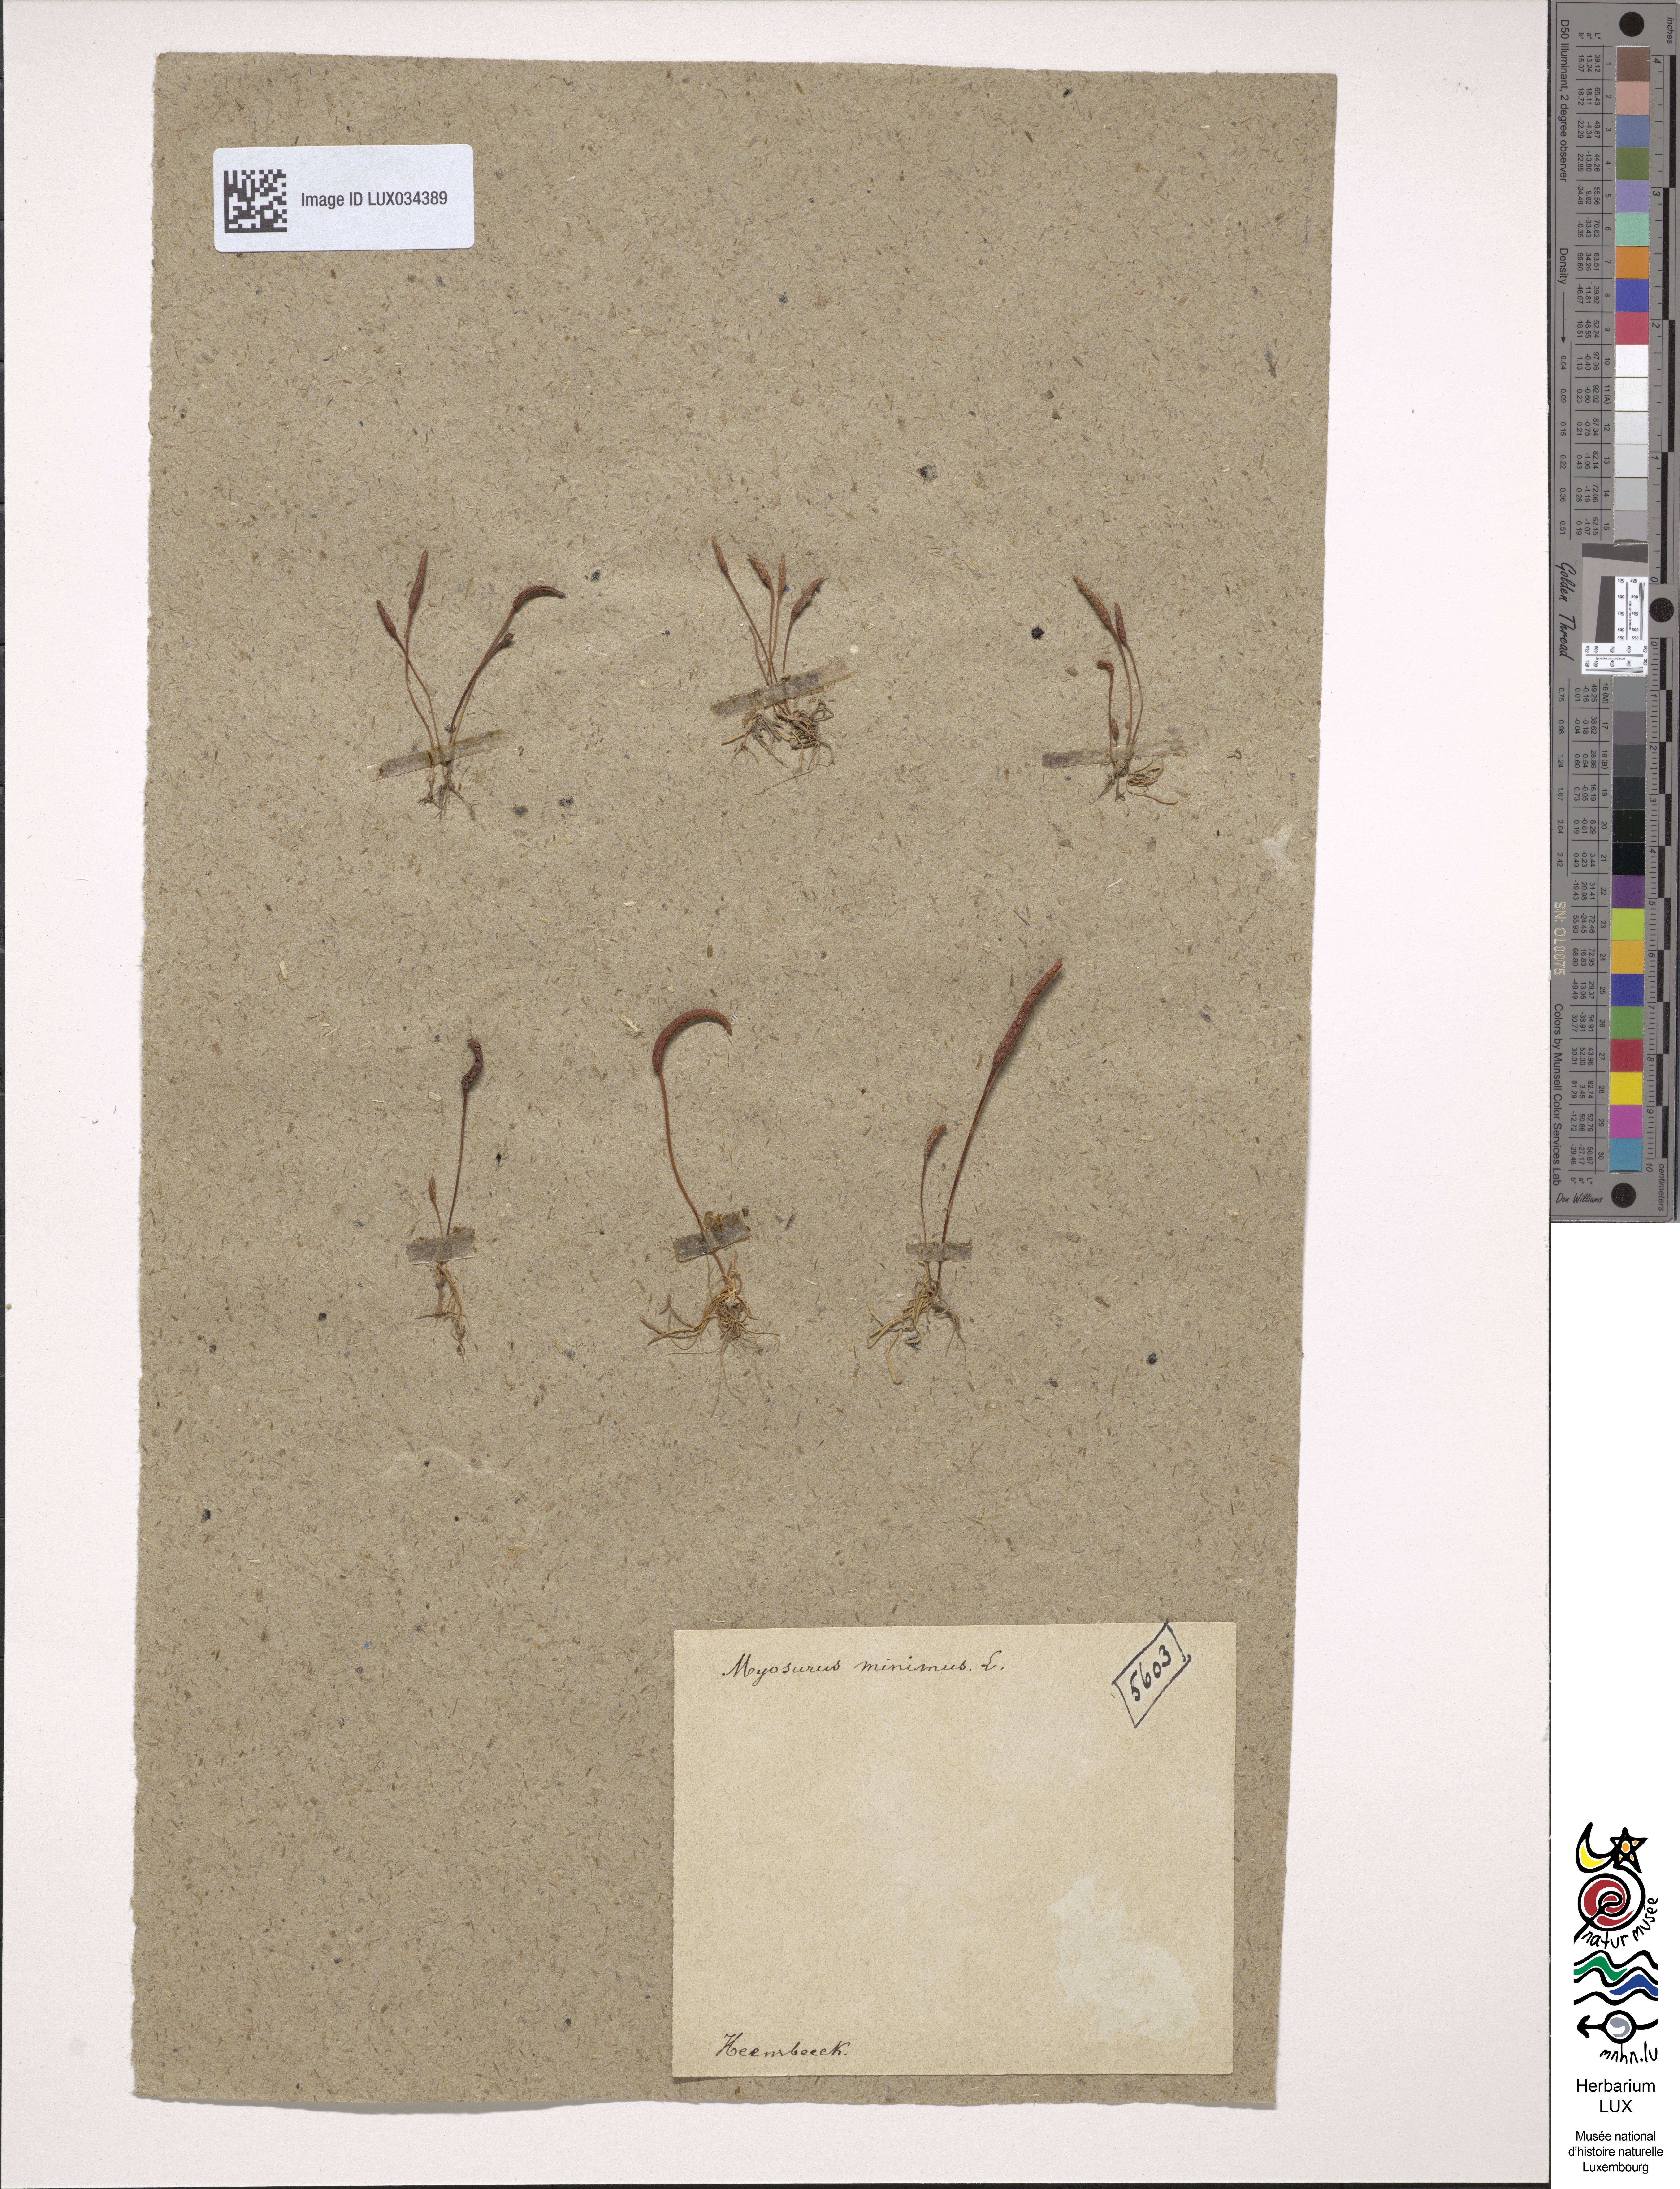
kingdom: Plantae
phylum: Tracheophyta
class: Magnoliopsida
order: Ranunculales
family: Ranunculaceae
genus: Myosurus
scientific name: Myosurus minimus
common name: Mousetail
